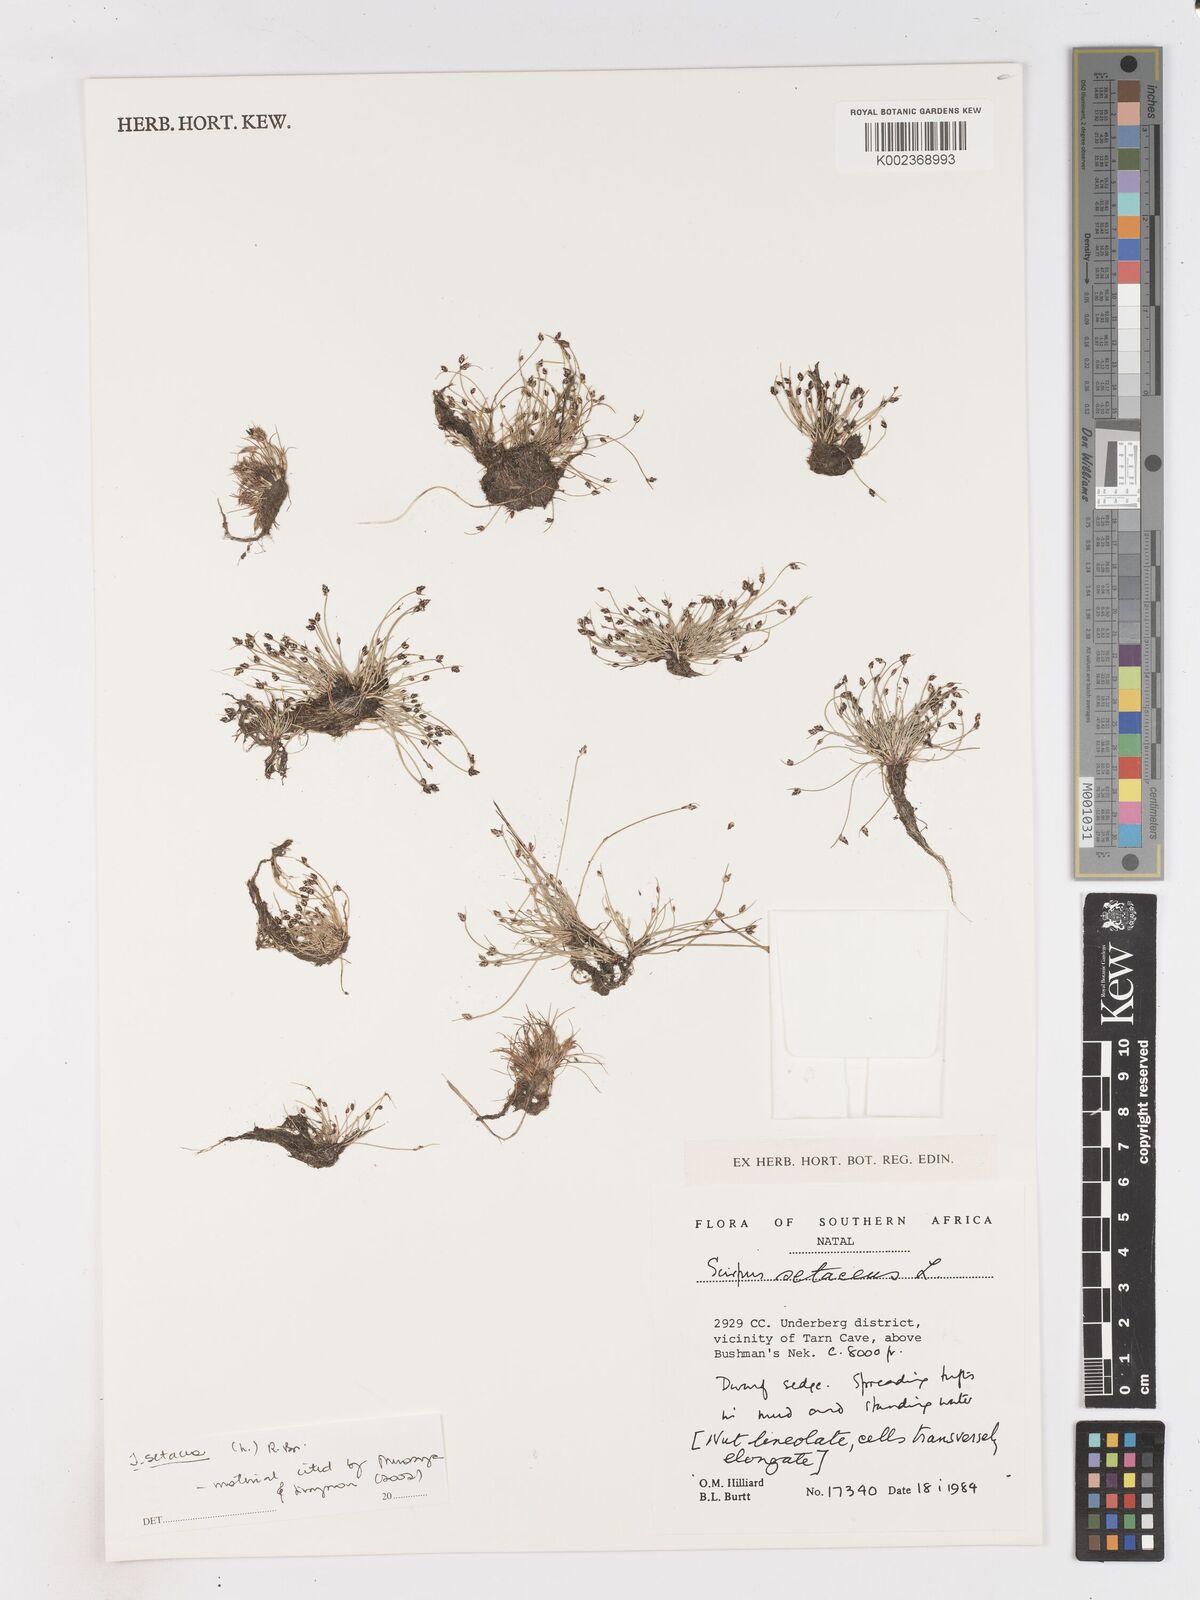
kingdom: Plantae
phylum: Tracheophyta
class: Liliopsida
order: Poales
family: Cyperaceae
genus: Isolepis
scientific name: Isolepis setacea
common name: Bristle club-rush
